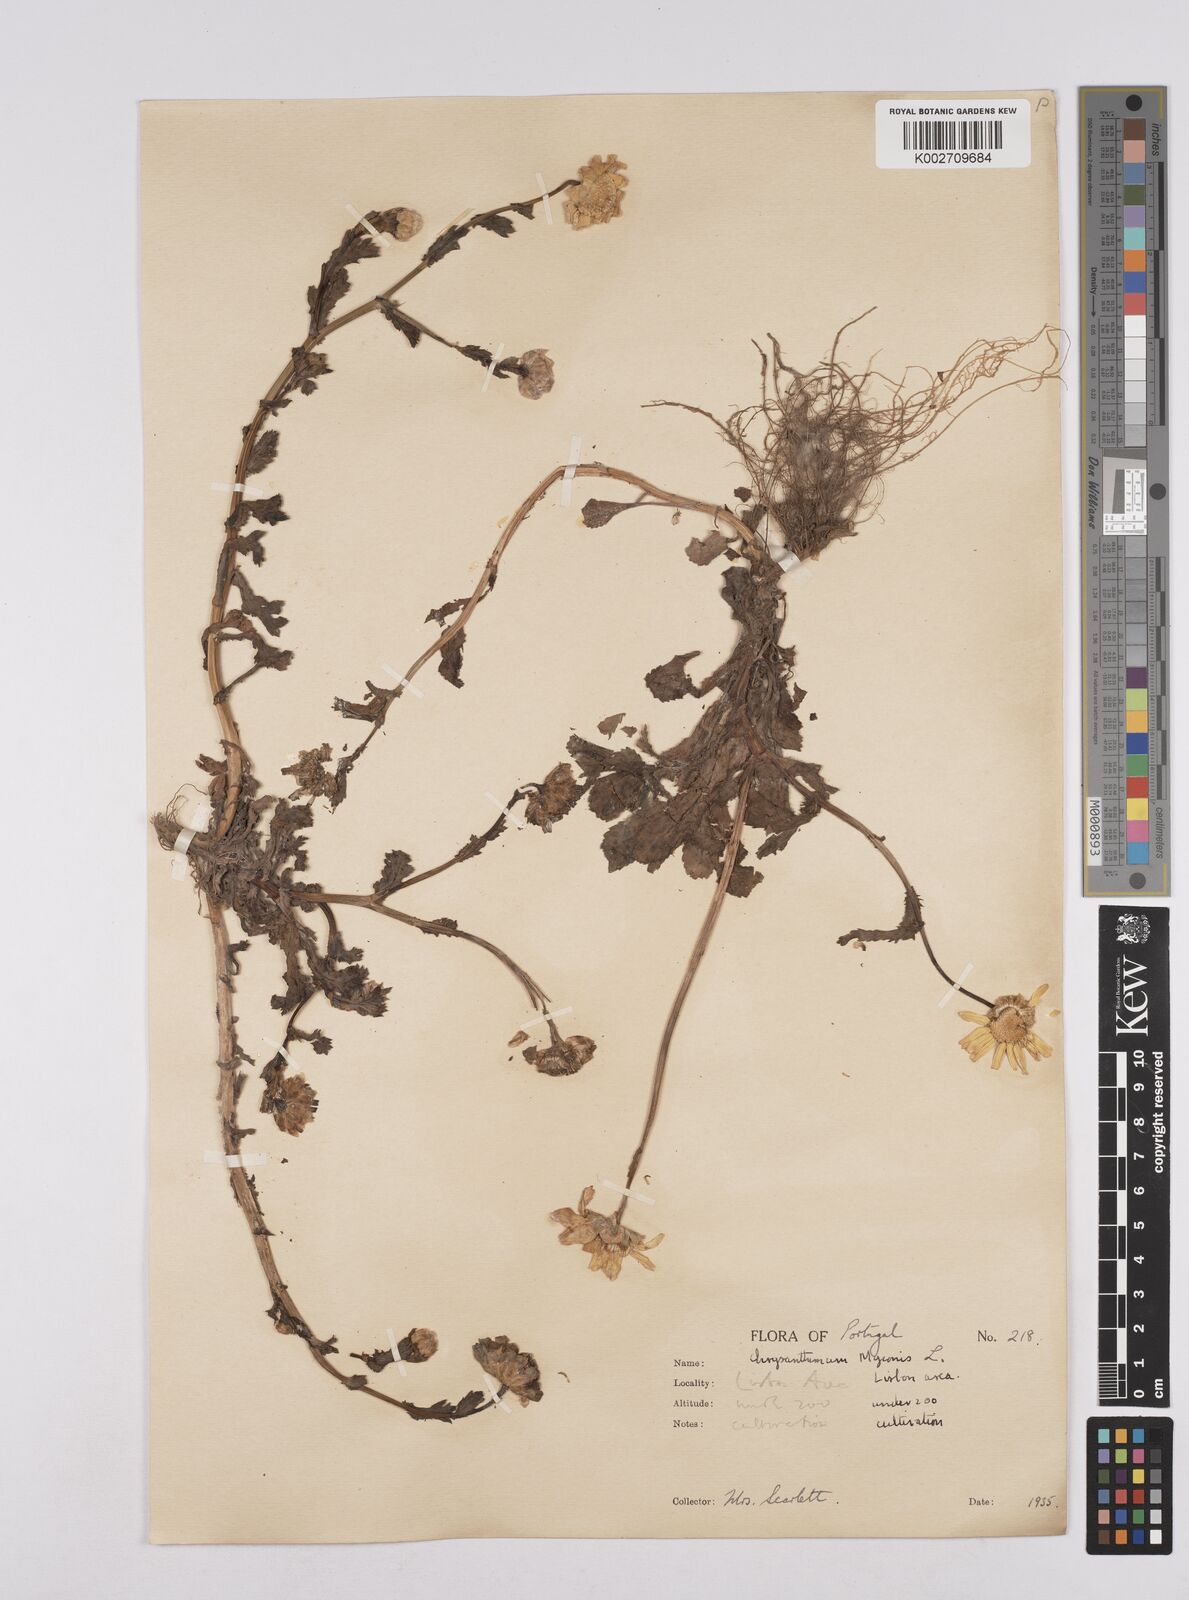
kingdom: Plantae
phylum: Tracheophyta
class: Magnoliopsida
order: Asterales
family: Asteraceae
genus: Coleostephus
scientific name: Coleostephus myconis
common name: Mediterranean marigold
